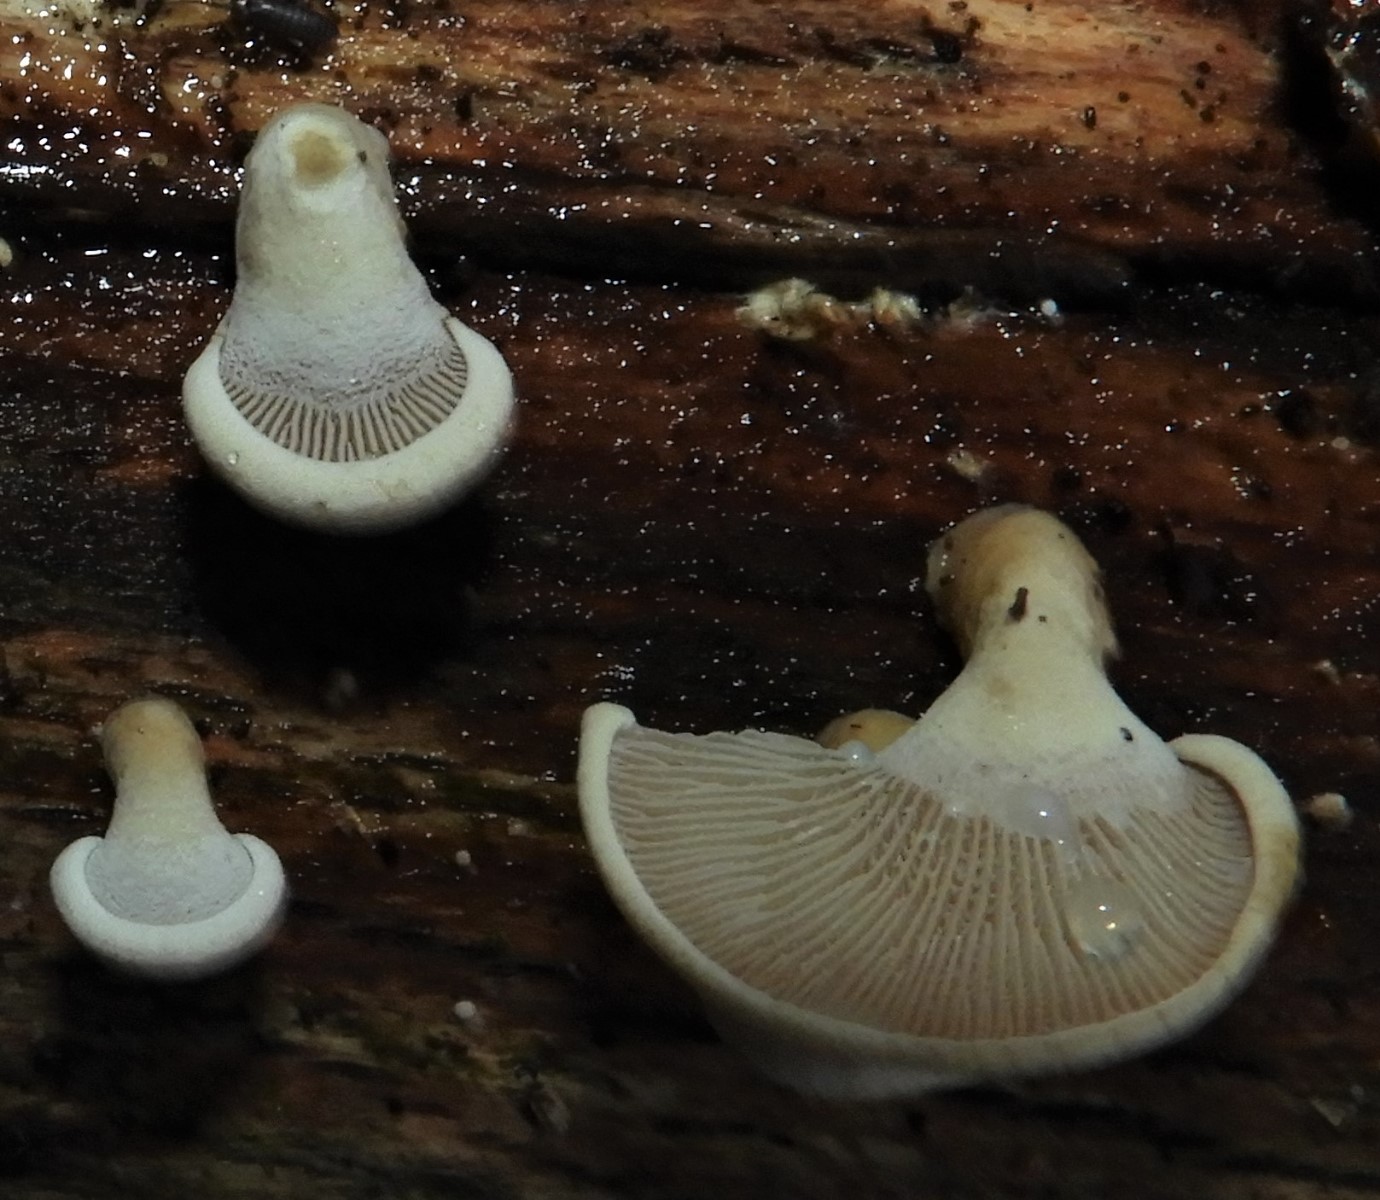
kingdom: Fungi
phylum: Basidiomycota
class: Agaricomycetes
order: Agaricales
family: Mycenaceae
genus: Panellus
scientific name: Panellus stipticus
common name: kliddet epaulethat
